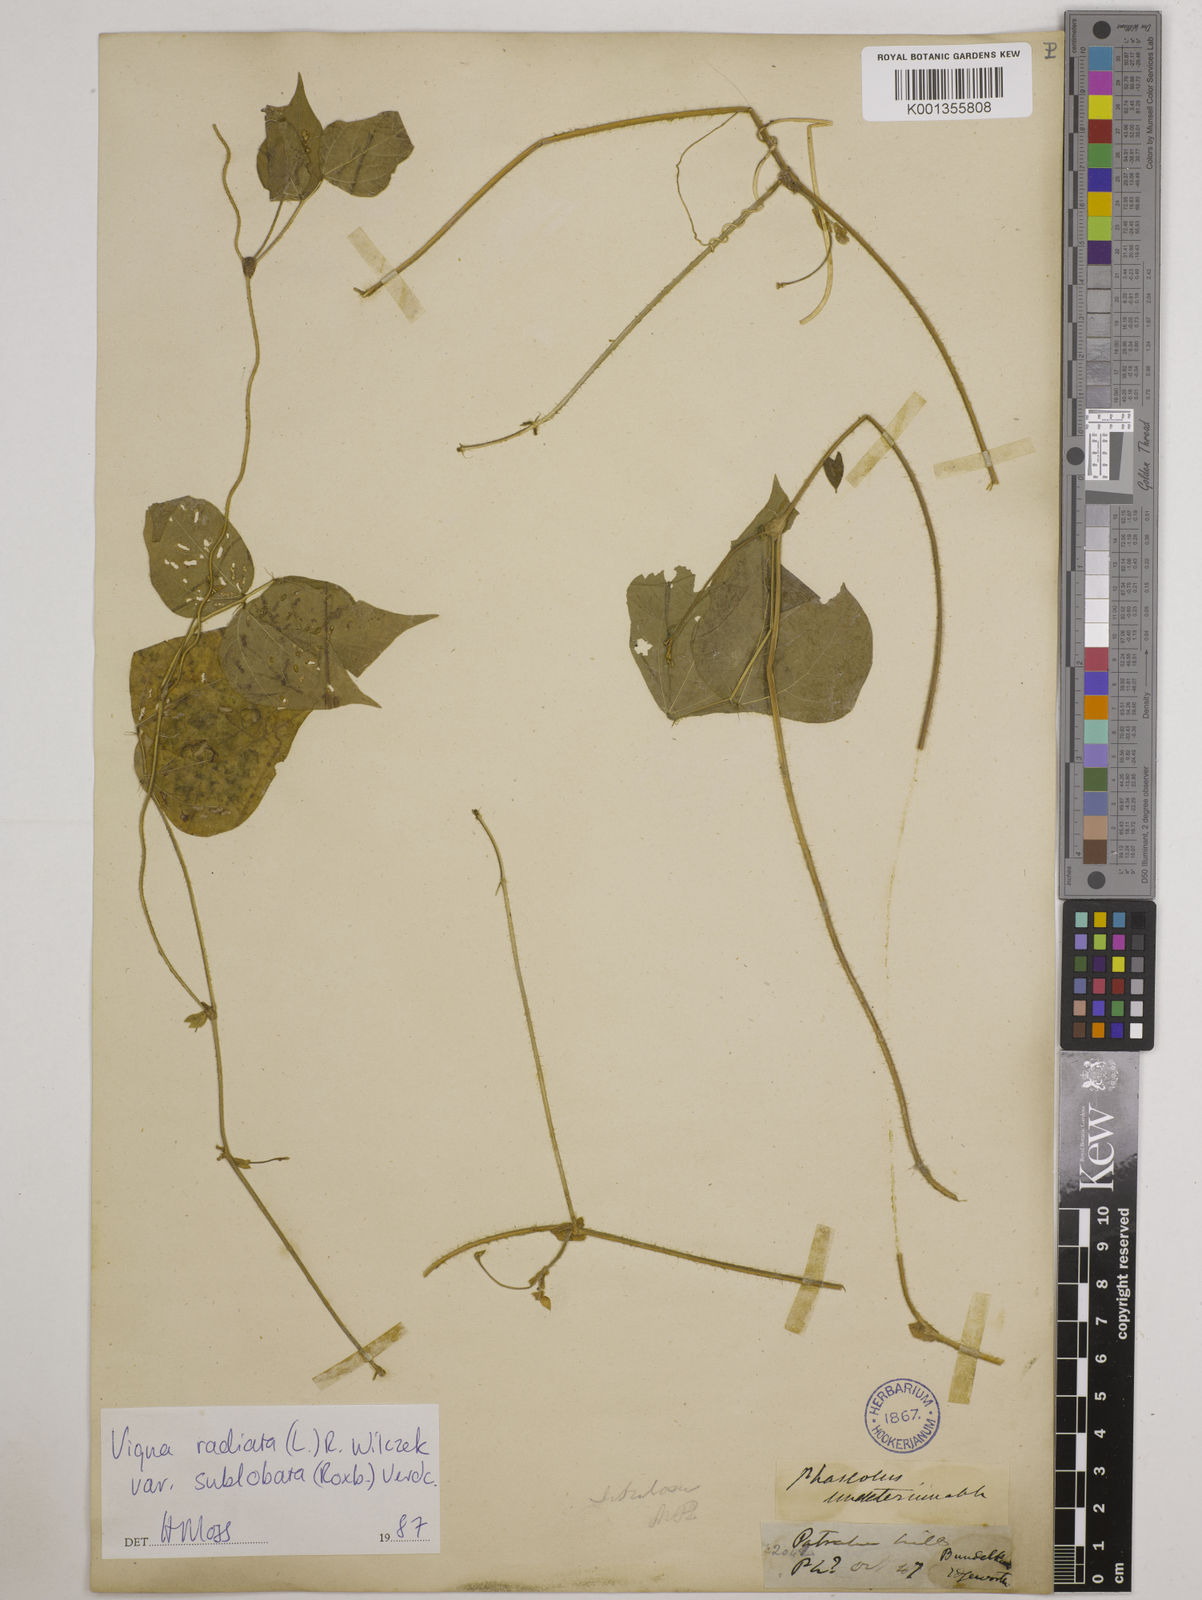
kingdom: Plantae
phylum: Tracheophyta
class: Magnoliopsida
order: Fabales
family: Fabaceae
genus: Vigna
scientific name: Vigna radiata
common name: Mung-bean
